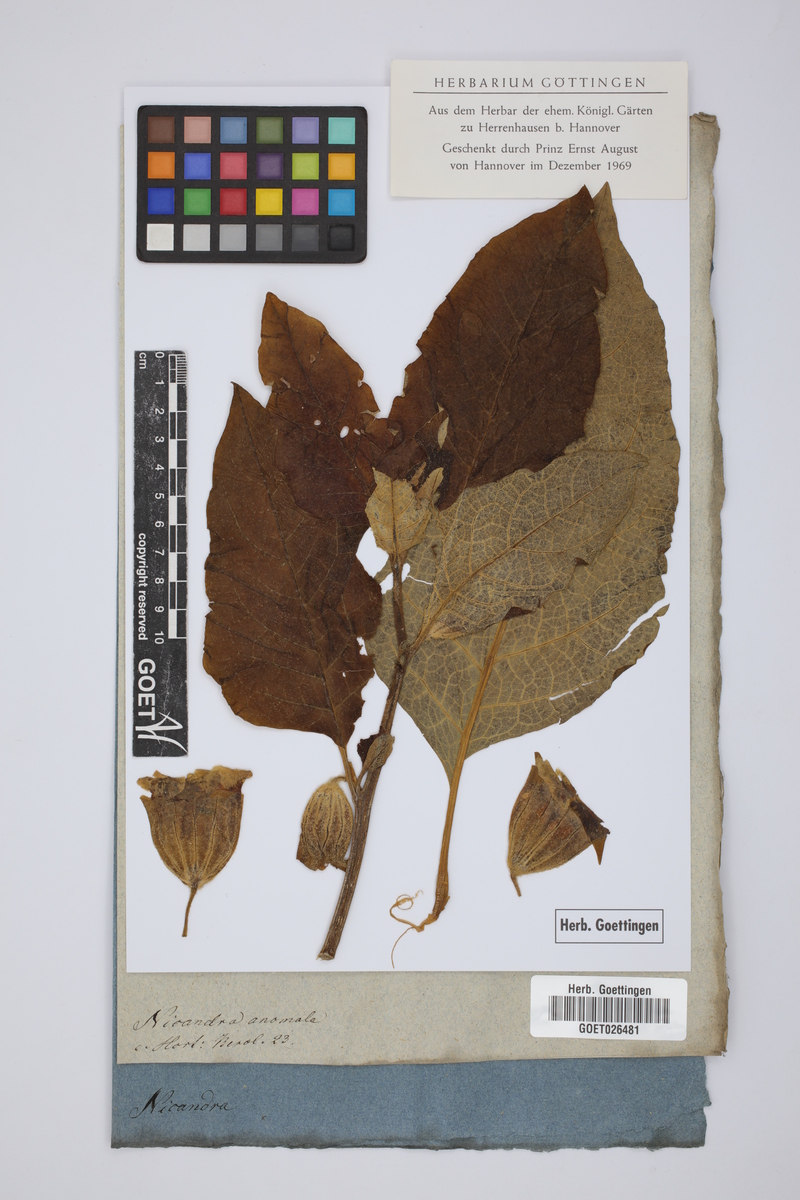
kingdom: Plantae
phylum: Tracheophyta
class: Magnoliopsida
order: Solanales
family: Solanaceae
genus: Anisodus
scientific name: Anisodus stramoniifolius
